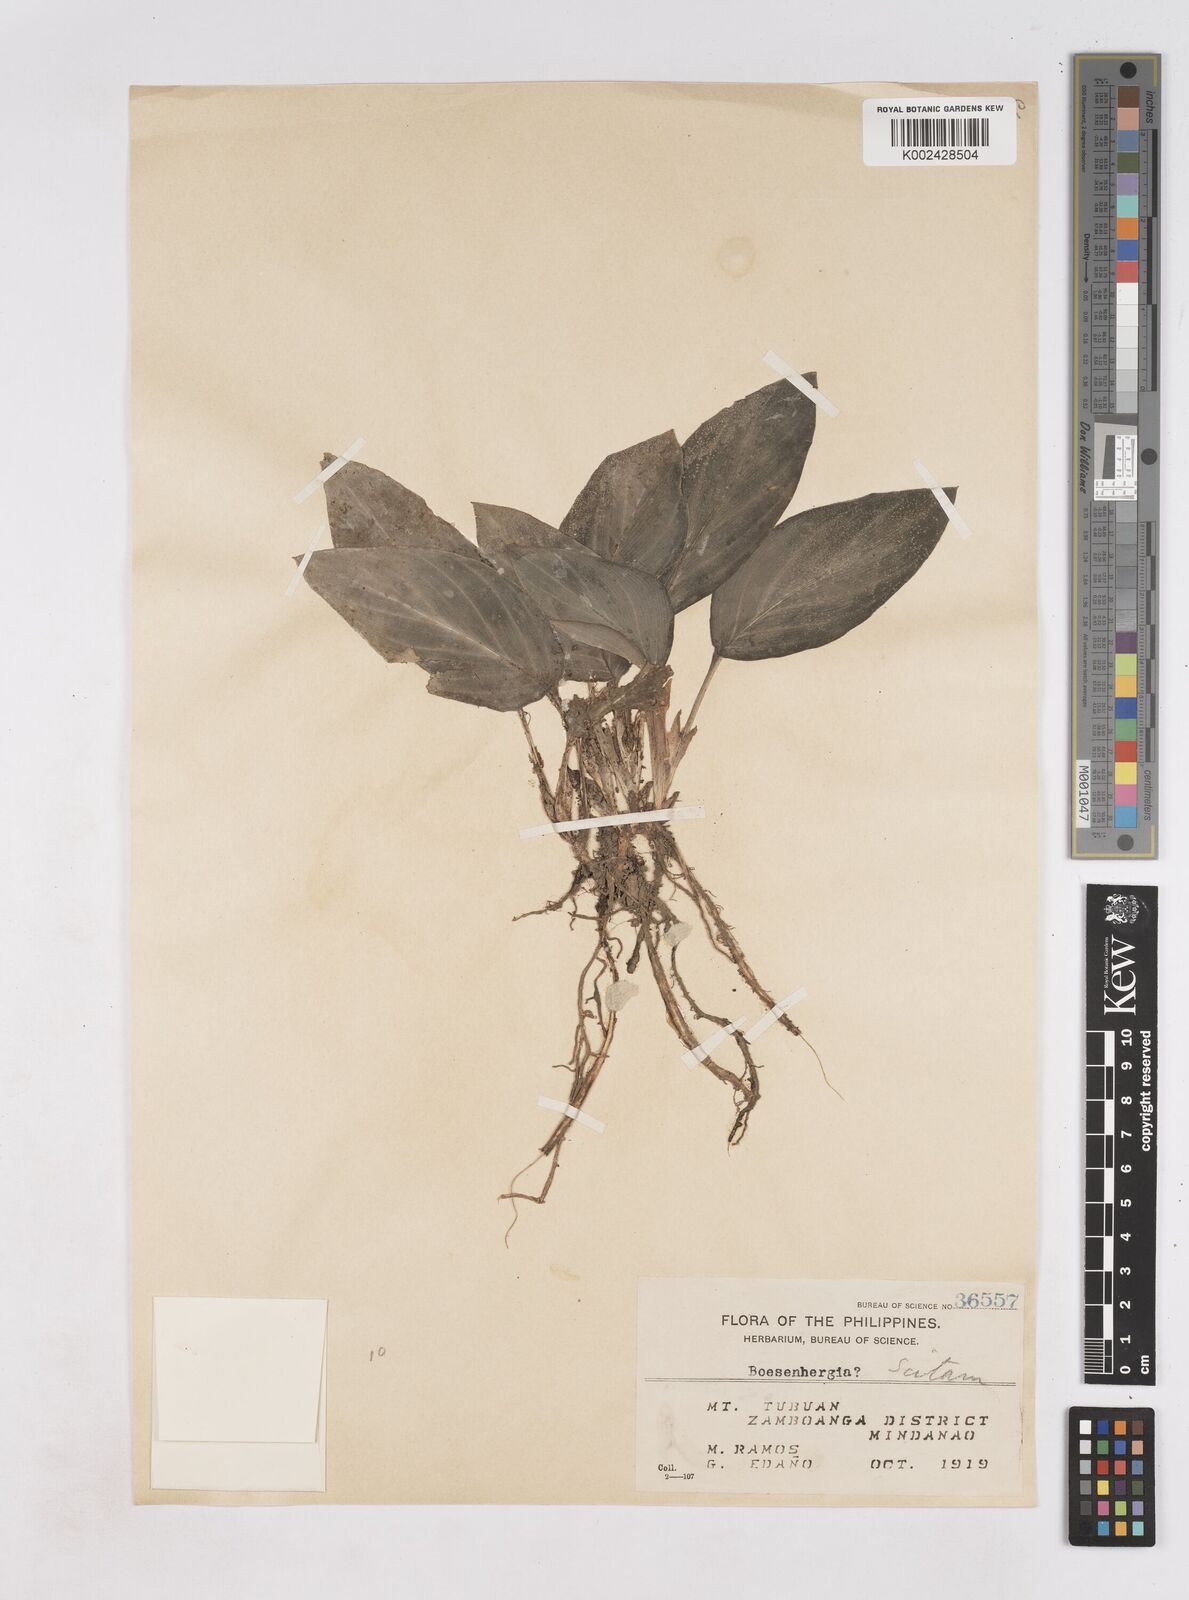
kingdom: Plantae
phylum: Tracheophyta
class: Liliopsida
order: Zingiberales
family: Zingiberaceae
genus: Boesenbergia
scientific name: Boesenbergia
